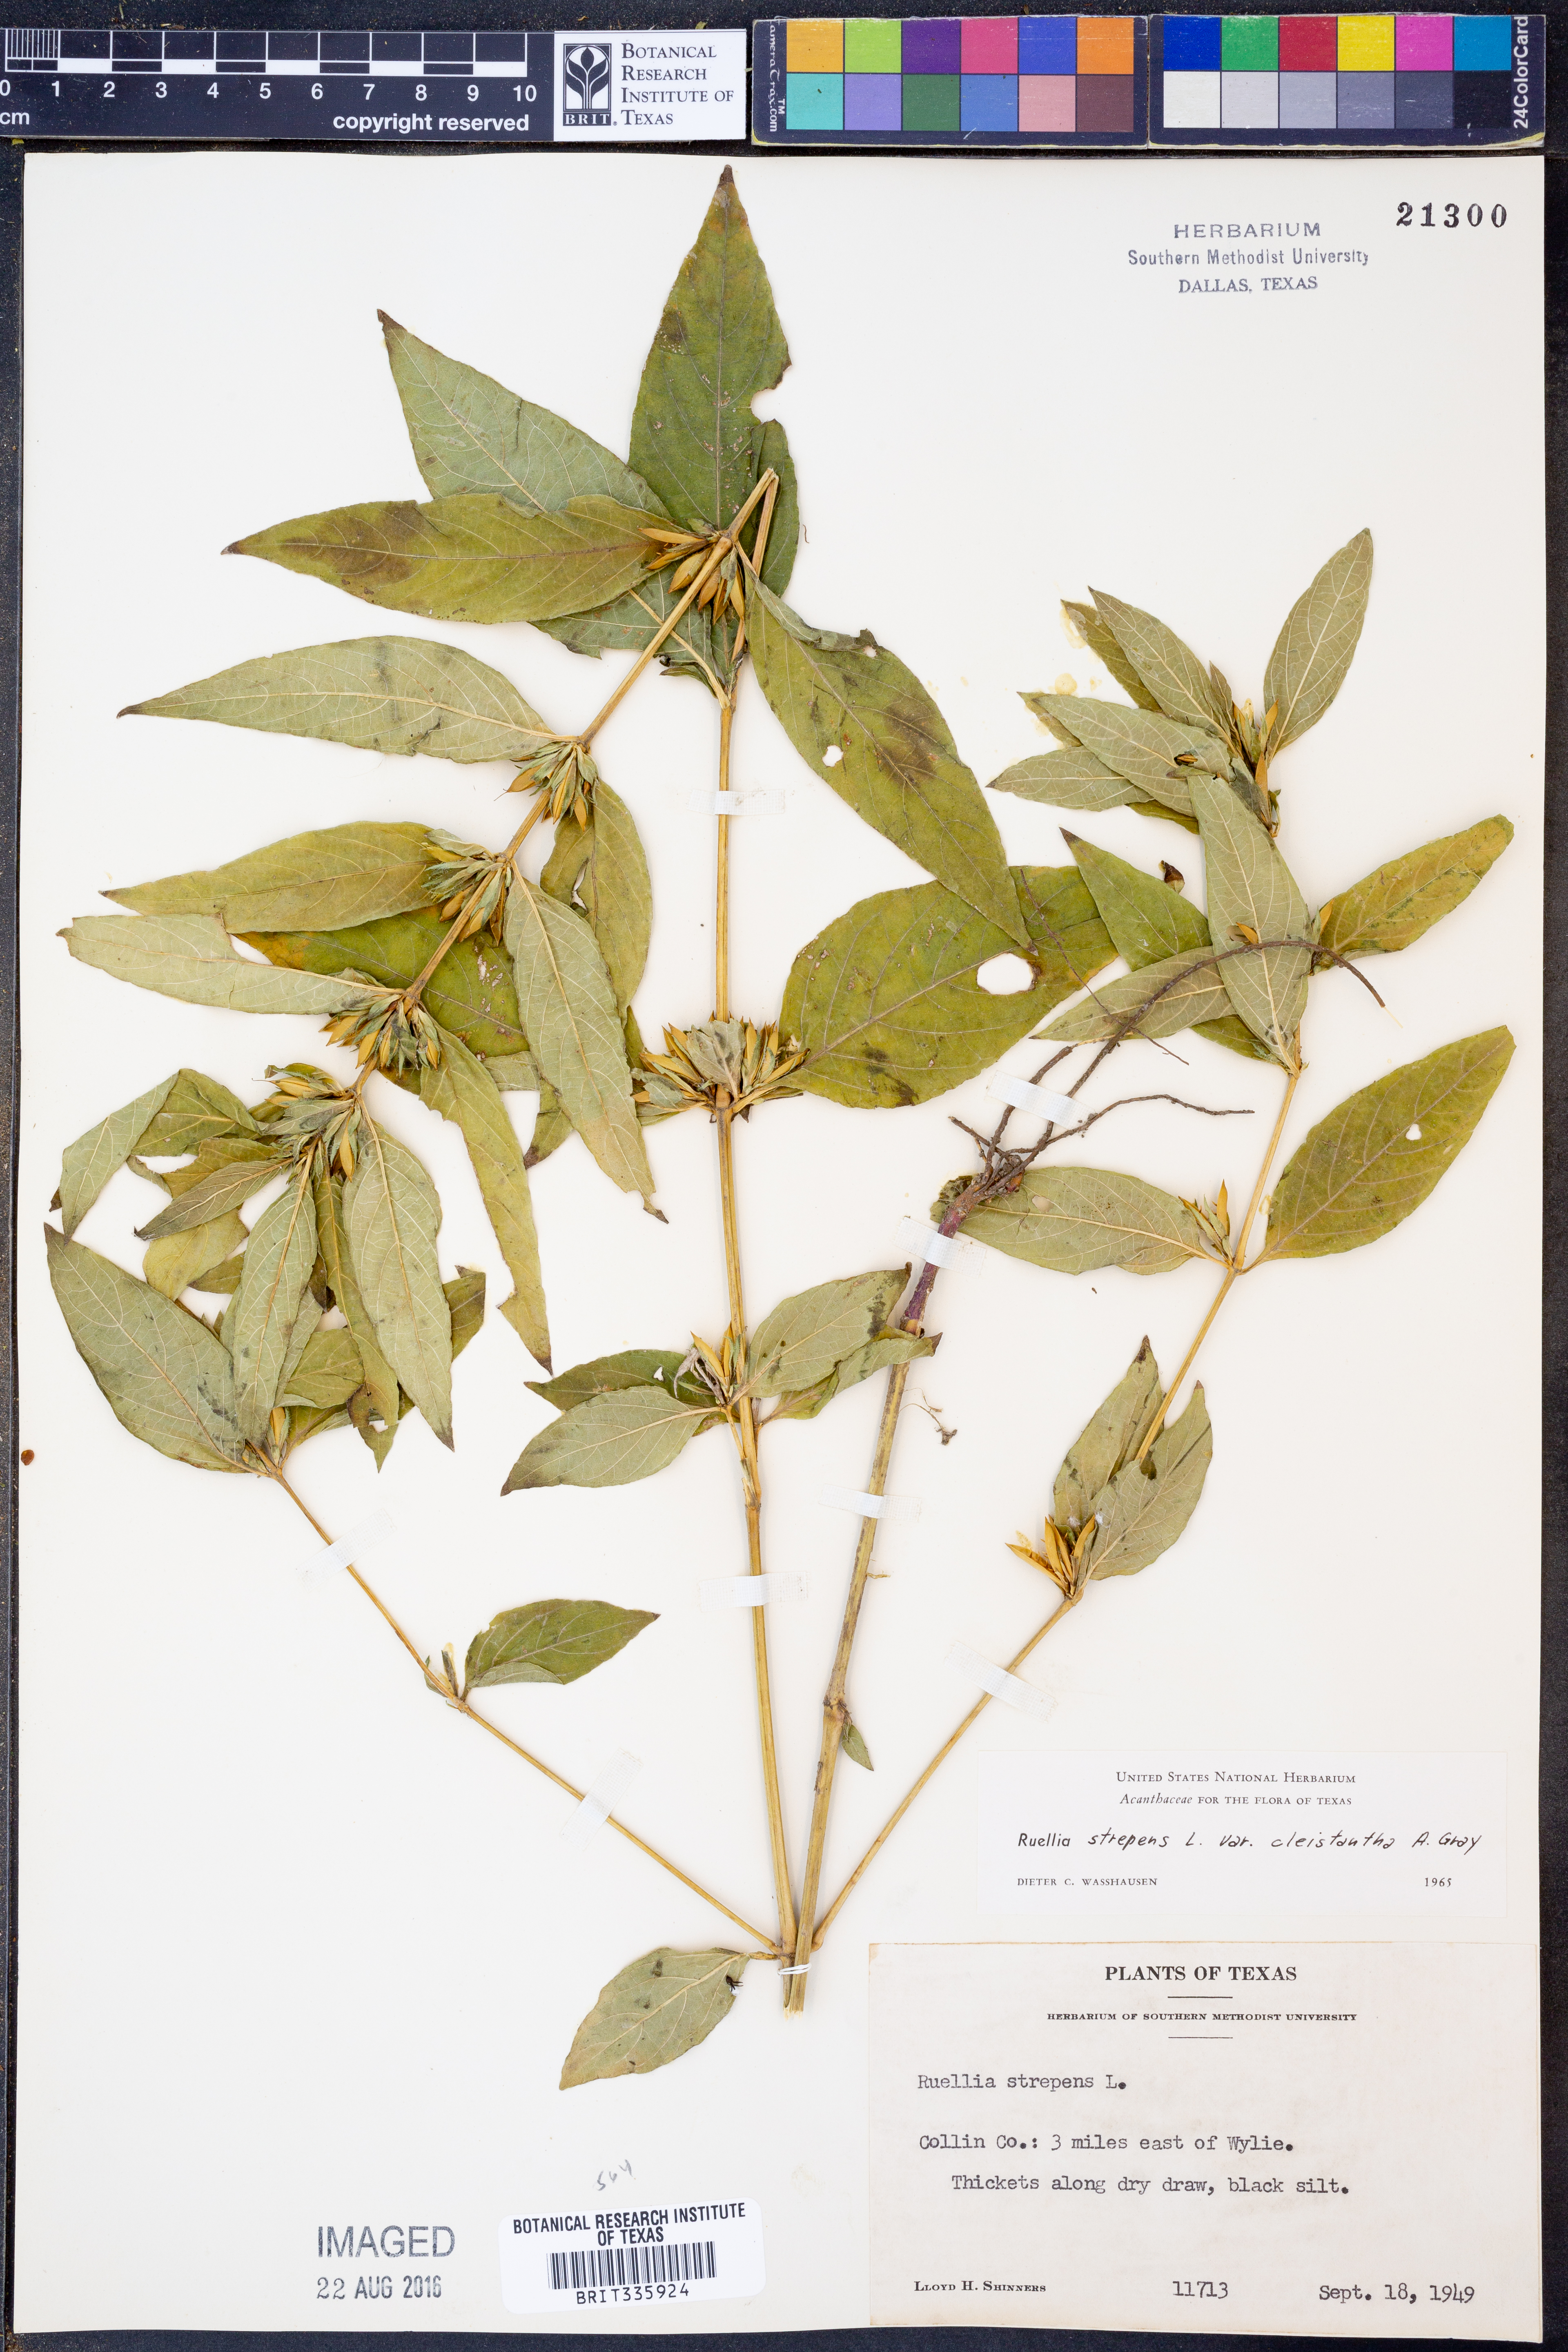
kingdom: Plantae
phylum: Tracheophyta
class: Magnoliopsida
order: Lamiales
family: Acanthaceae
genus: Ruellia
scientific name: Ruellia strepens
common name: Limestone wild petunia
